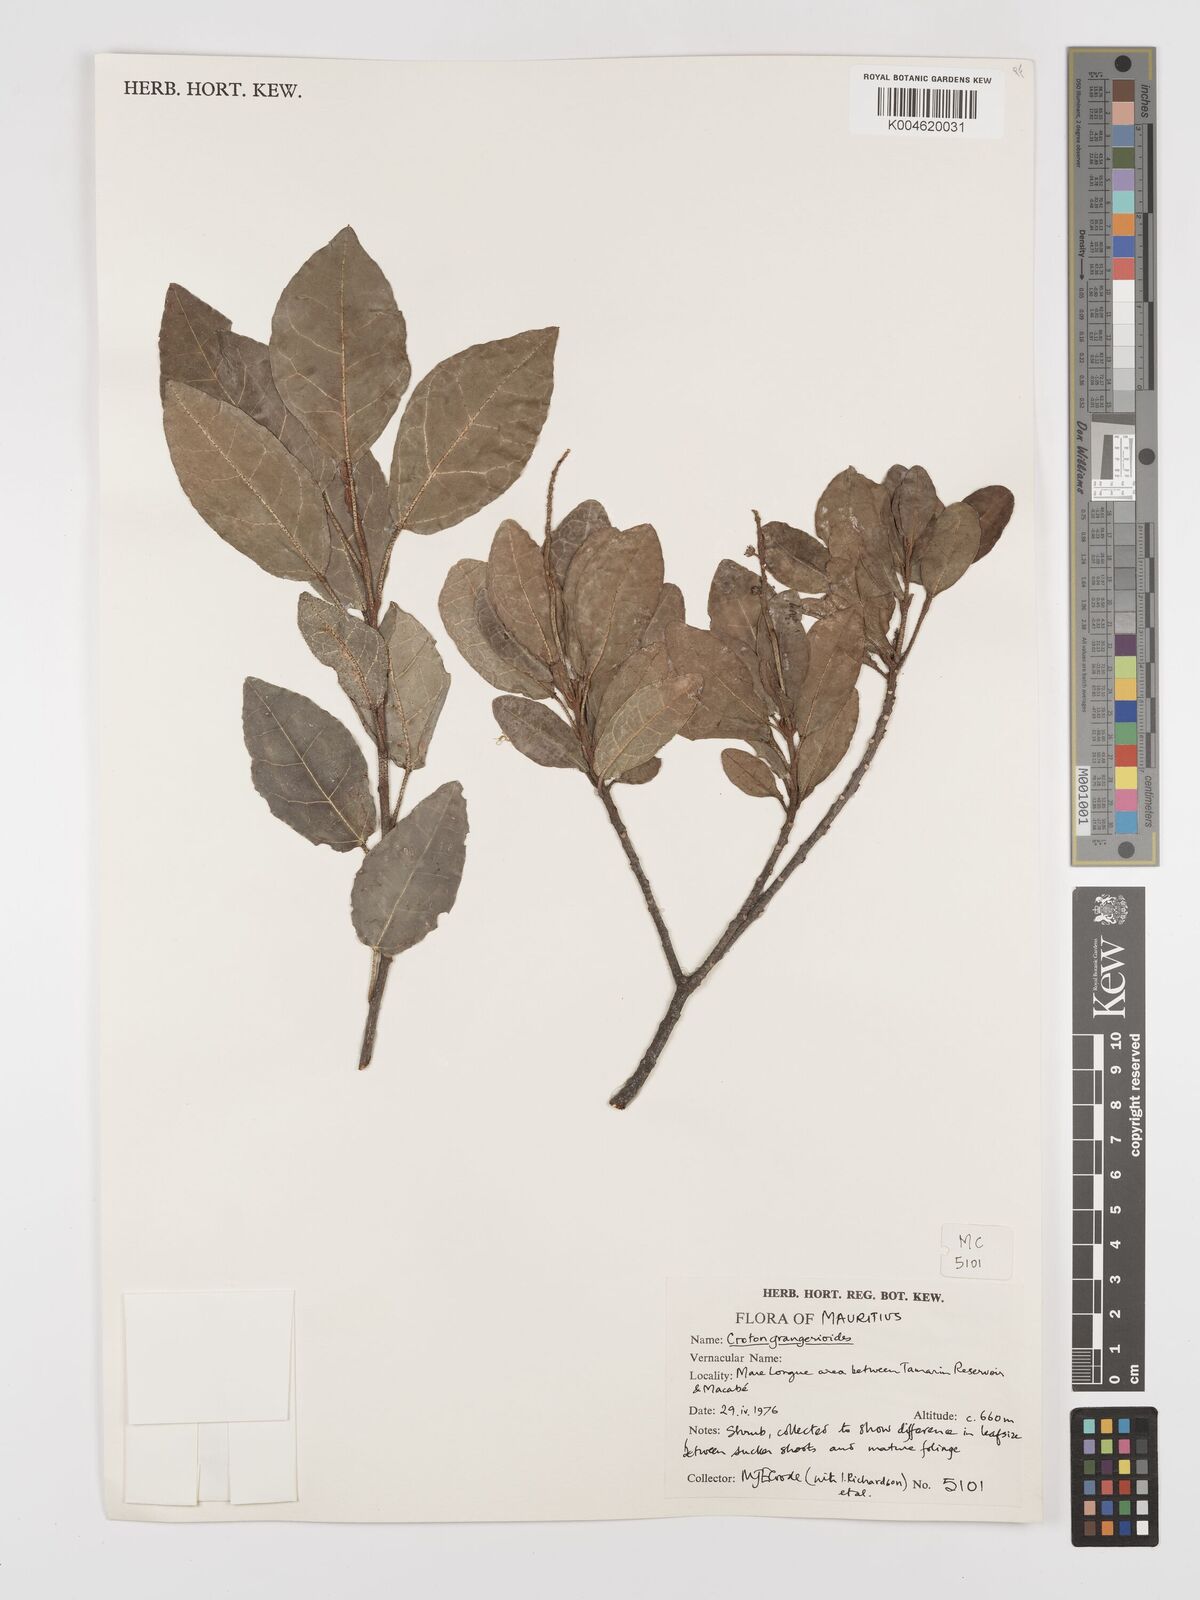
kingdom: Plantae
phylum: Tracheophyta
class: Magnoliopsida
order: Malpighiales
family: Euphorbiaceae
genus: Croton
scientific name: Croton grangerioides
